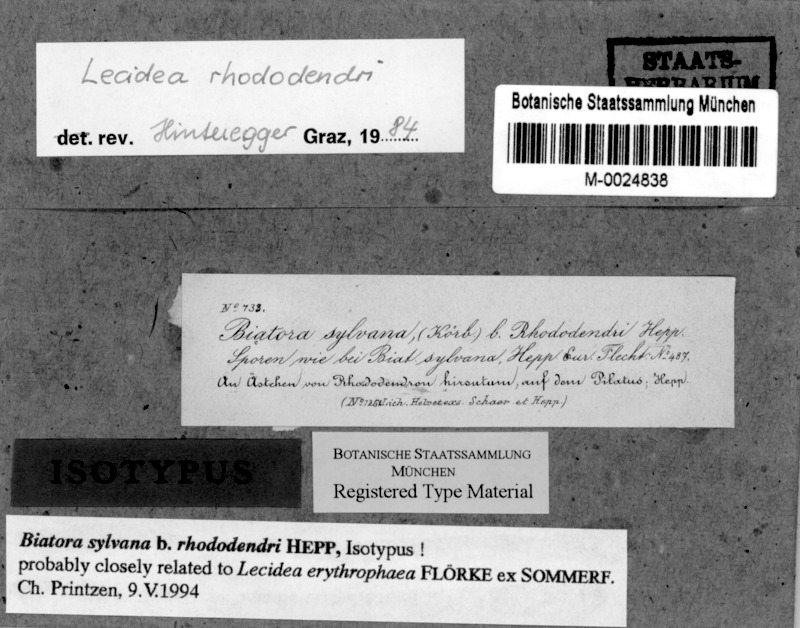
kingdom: Fungi
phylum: Ascomycota
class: Lecanoromycetes
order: Lecideales
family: Lecideaceae
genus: Lecidea
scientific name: Lecidea rhododendri
